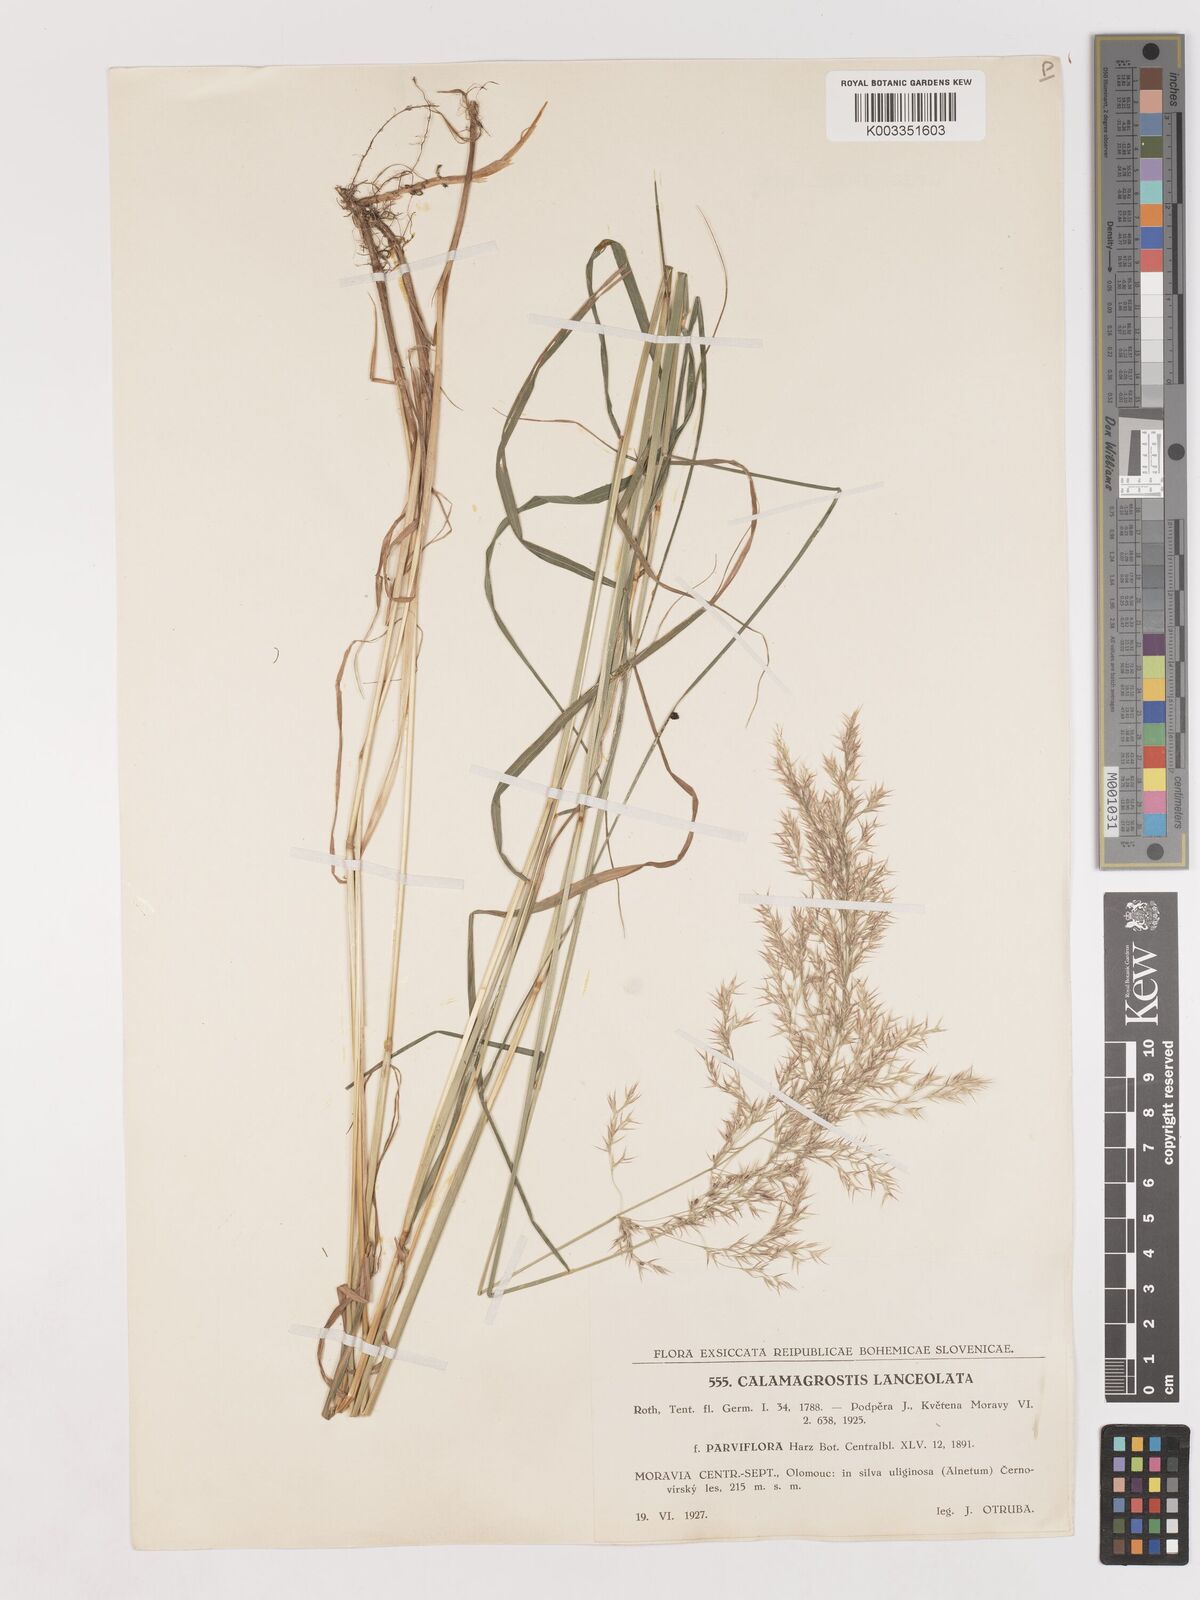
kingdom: Plantae
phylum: Tracheophyta
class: Liliopsida
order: Poales
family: Poaceae
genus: Calamagrostis
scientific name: Calamagrostis canescens
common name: Purple small-reed
